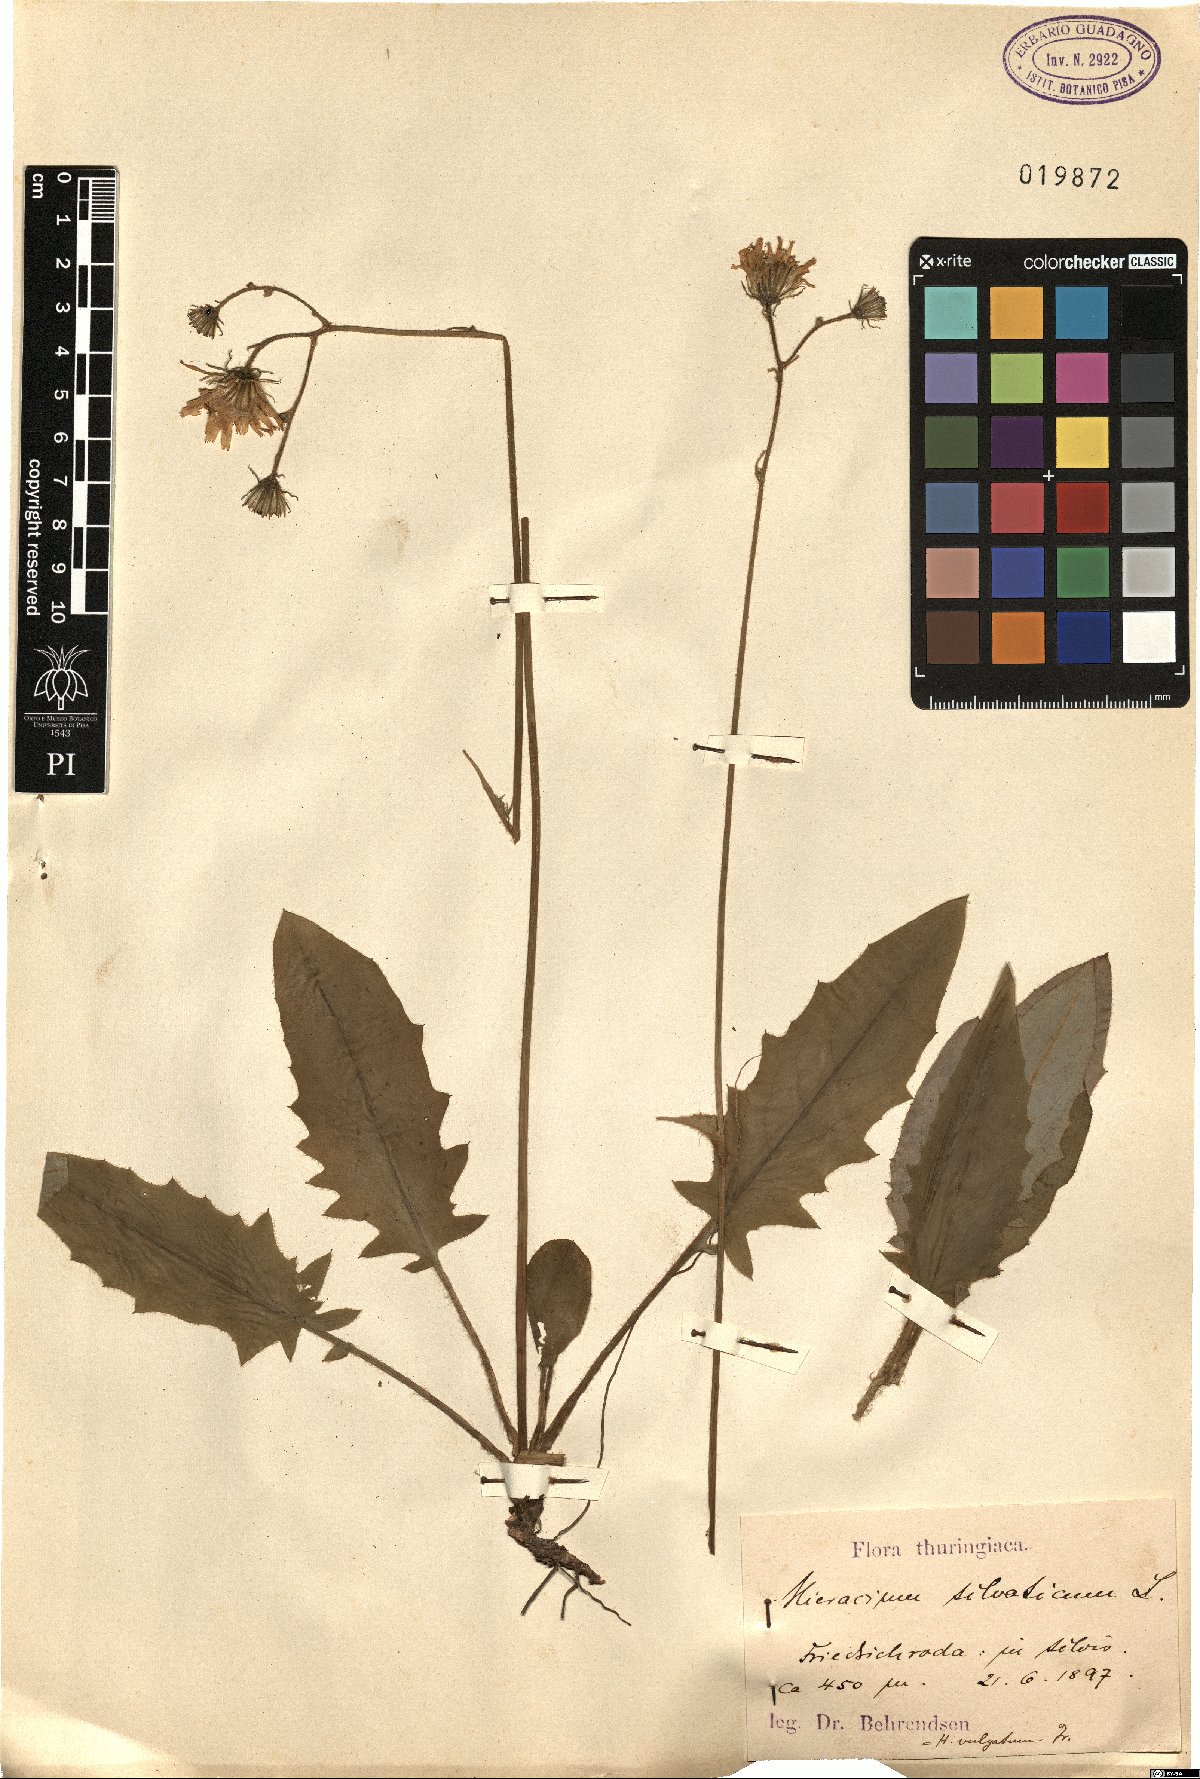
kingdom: Plantae
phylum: Tracheophyta
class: Magnoliopsida
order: Asterales
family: Asteraceae
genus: Hieracium
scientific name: Hieracium murorum
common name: Wall hawkweed
